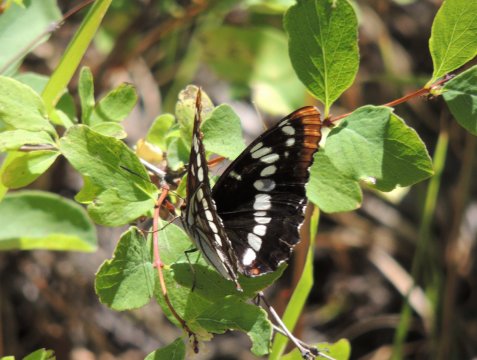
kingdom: Animalia
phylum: Arthropoda
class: Insecta
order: Lepidoptera
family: Nymphalidae
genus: Limenitis
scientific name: Limenitis lorquini
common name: Lorquin's Admiral
